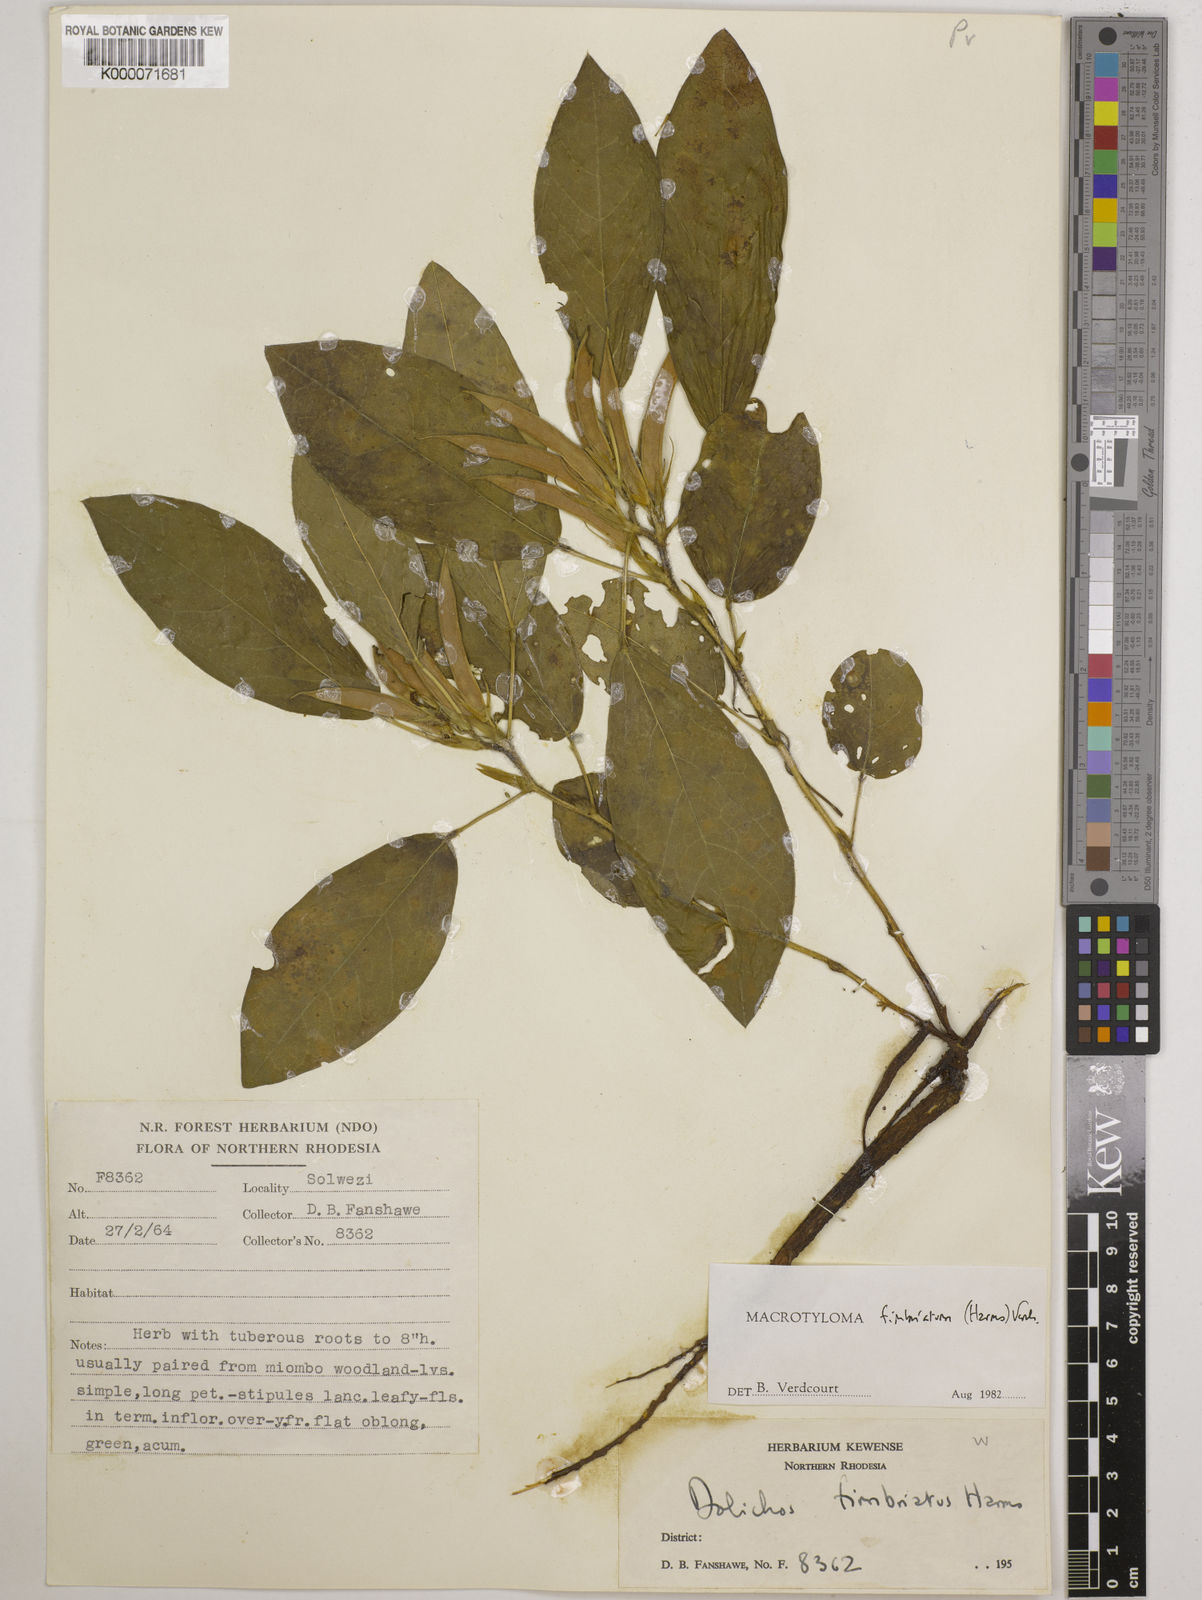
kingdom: Plantae
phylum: Tracheophyta
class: Magnoliopsida
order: Fabales
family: Fabaceae
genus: Macrotyloma
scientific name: Macrotyloma fimbriatum
